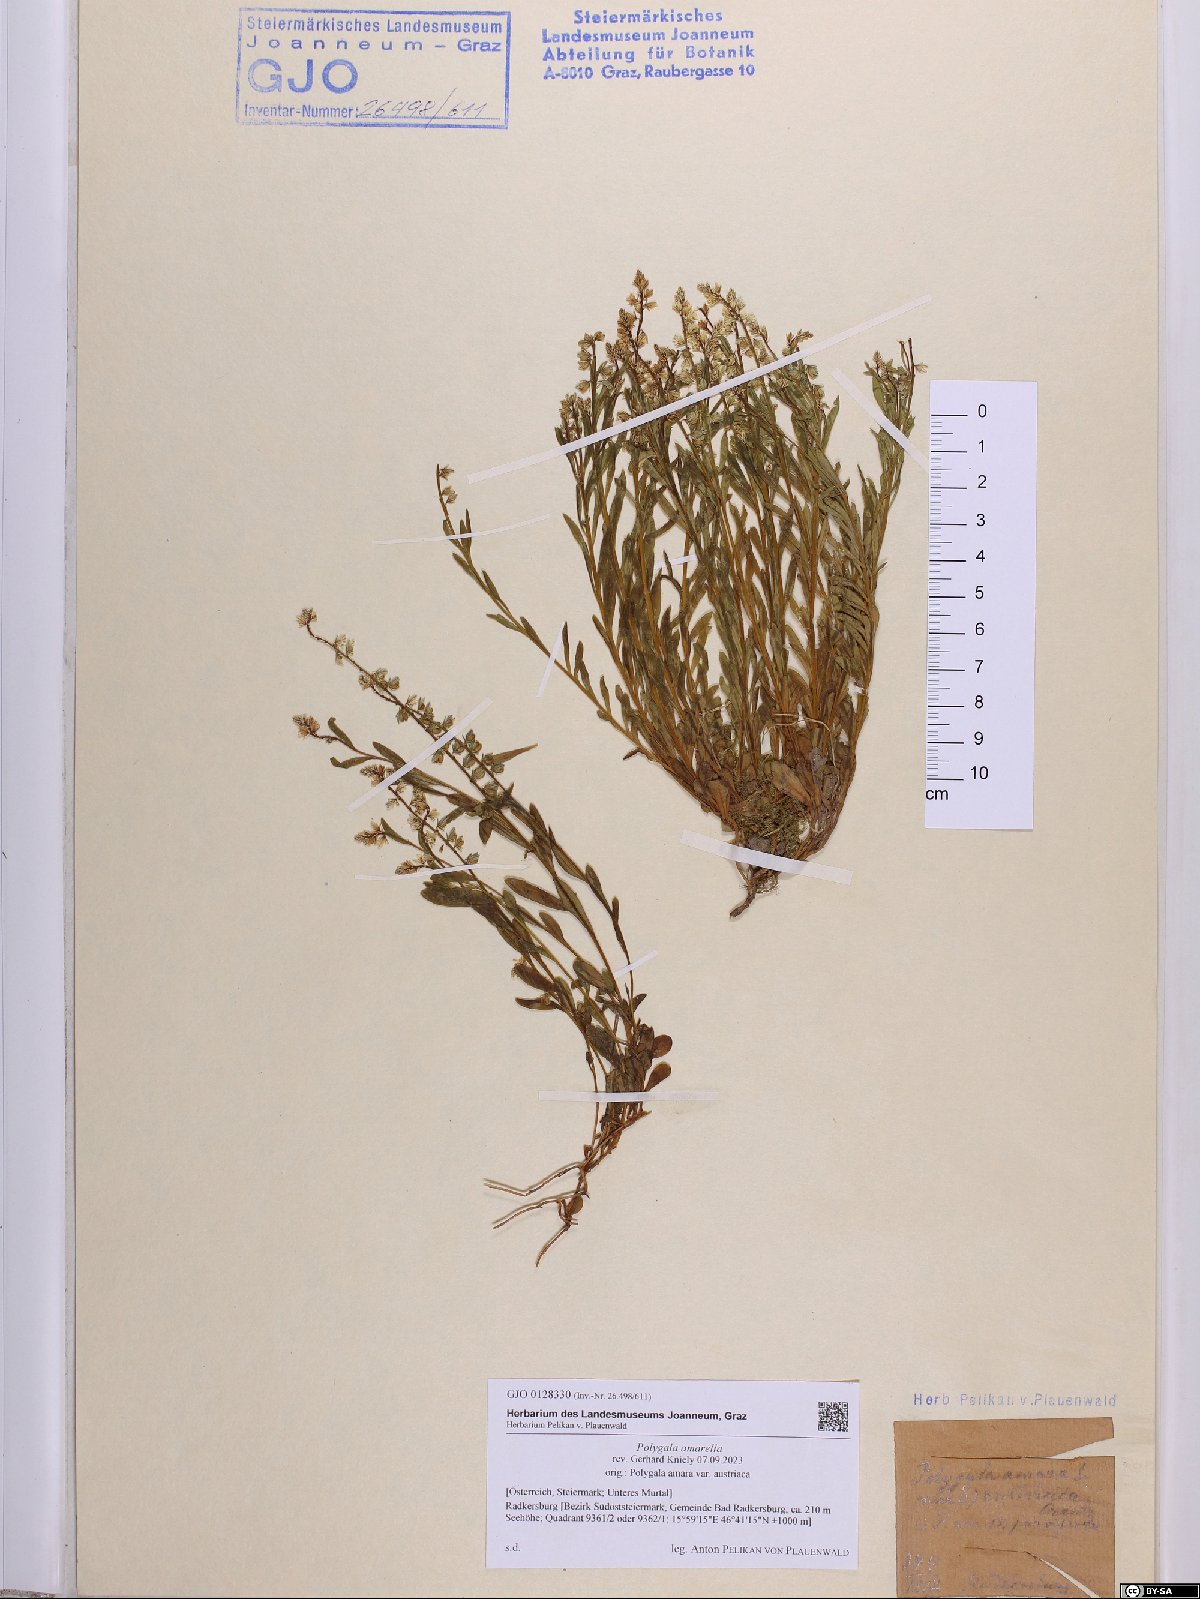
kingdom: Plantae
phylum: Tracheophyta
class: Magnoliopsida
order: Fabales
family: Polygalaceae
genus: Polygala
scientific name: Polygala amarella
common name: Dwarf milkwort
